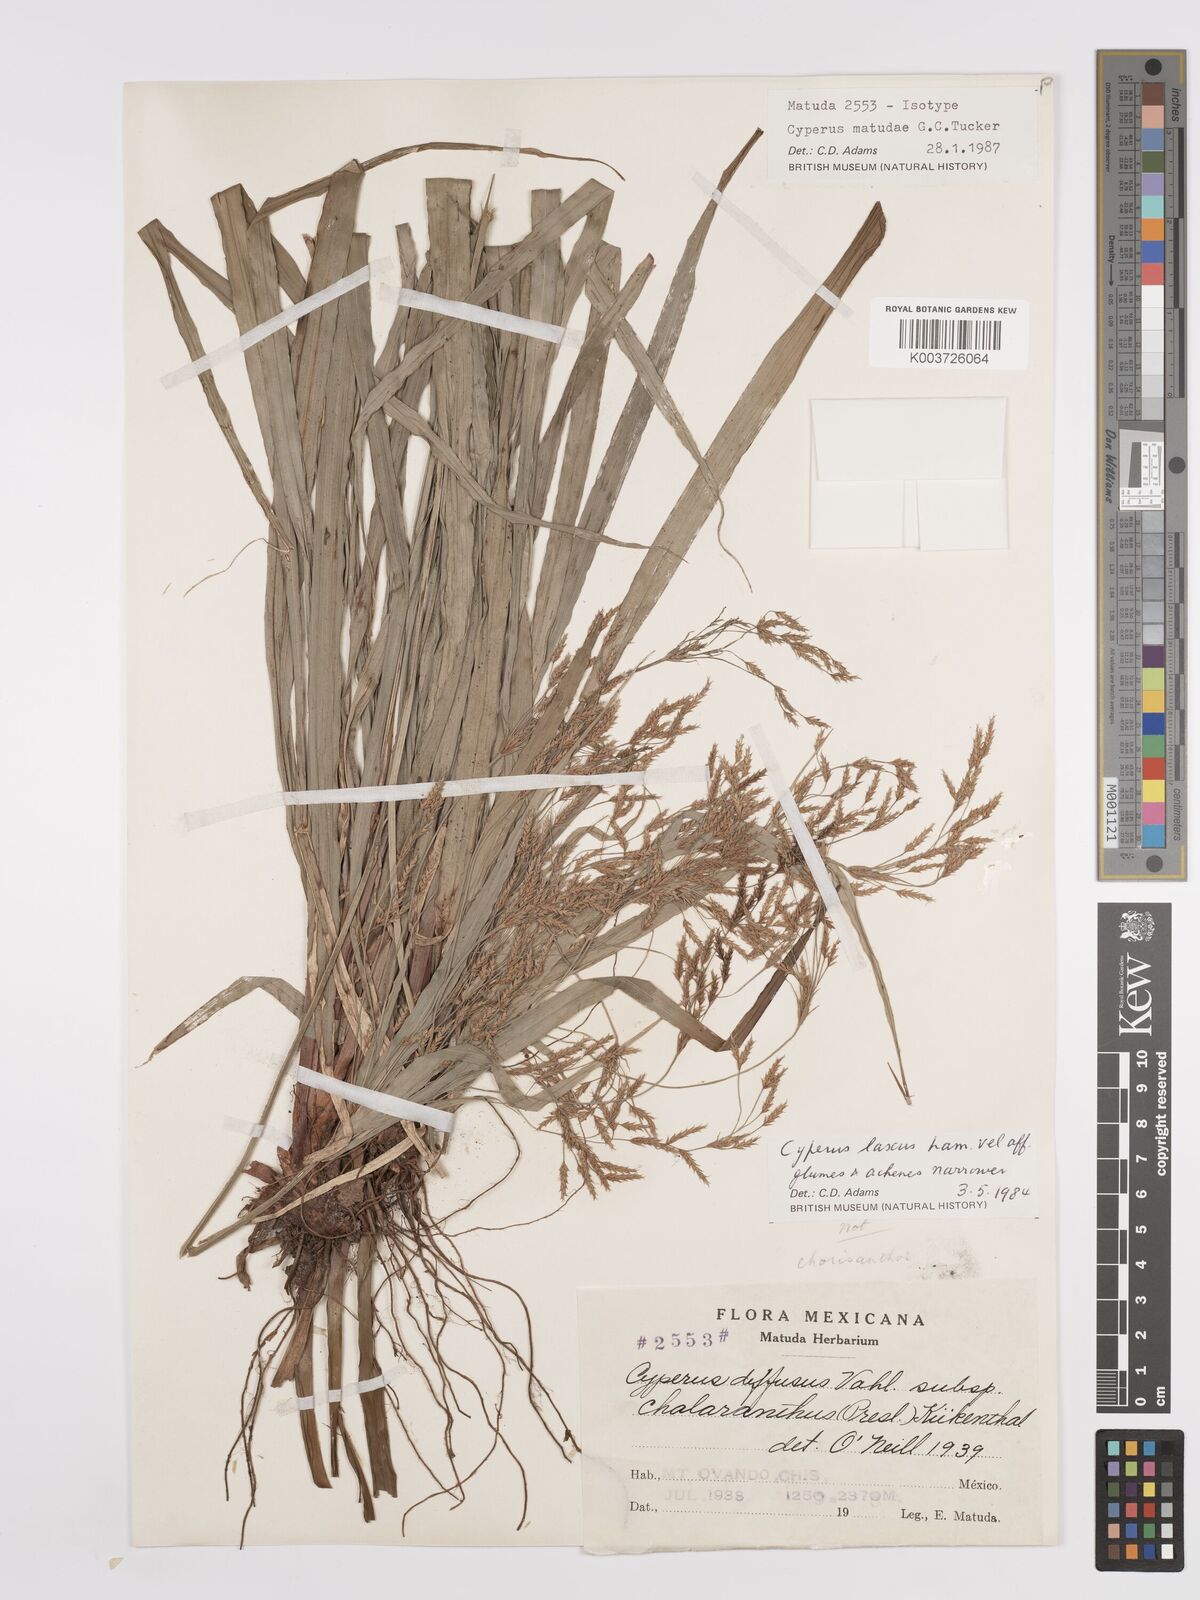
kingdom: Plantae
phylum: Tracheophyta
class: Liliopsida
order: Poales
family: Cyperaceae
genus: Cyperus
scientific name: Cyperus diffusus
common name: Dwarf umbrella grass
